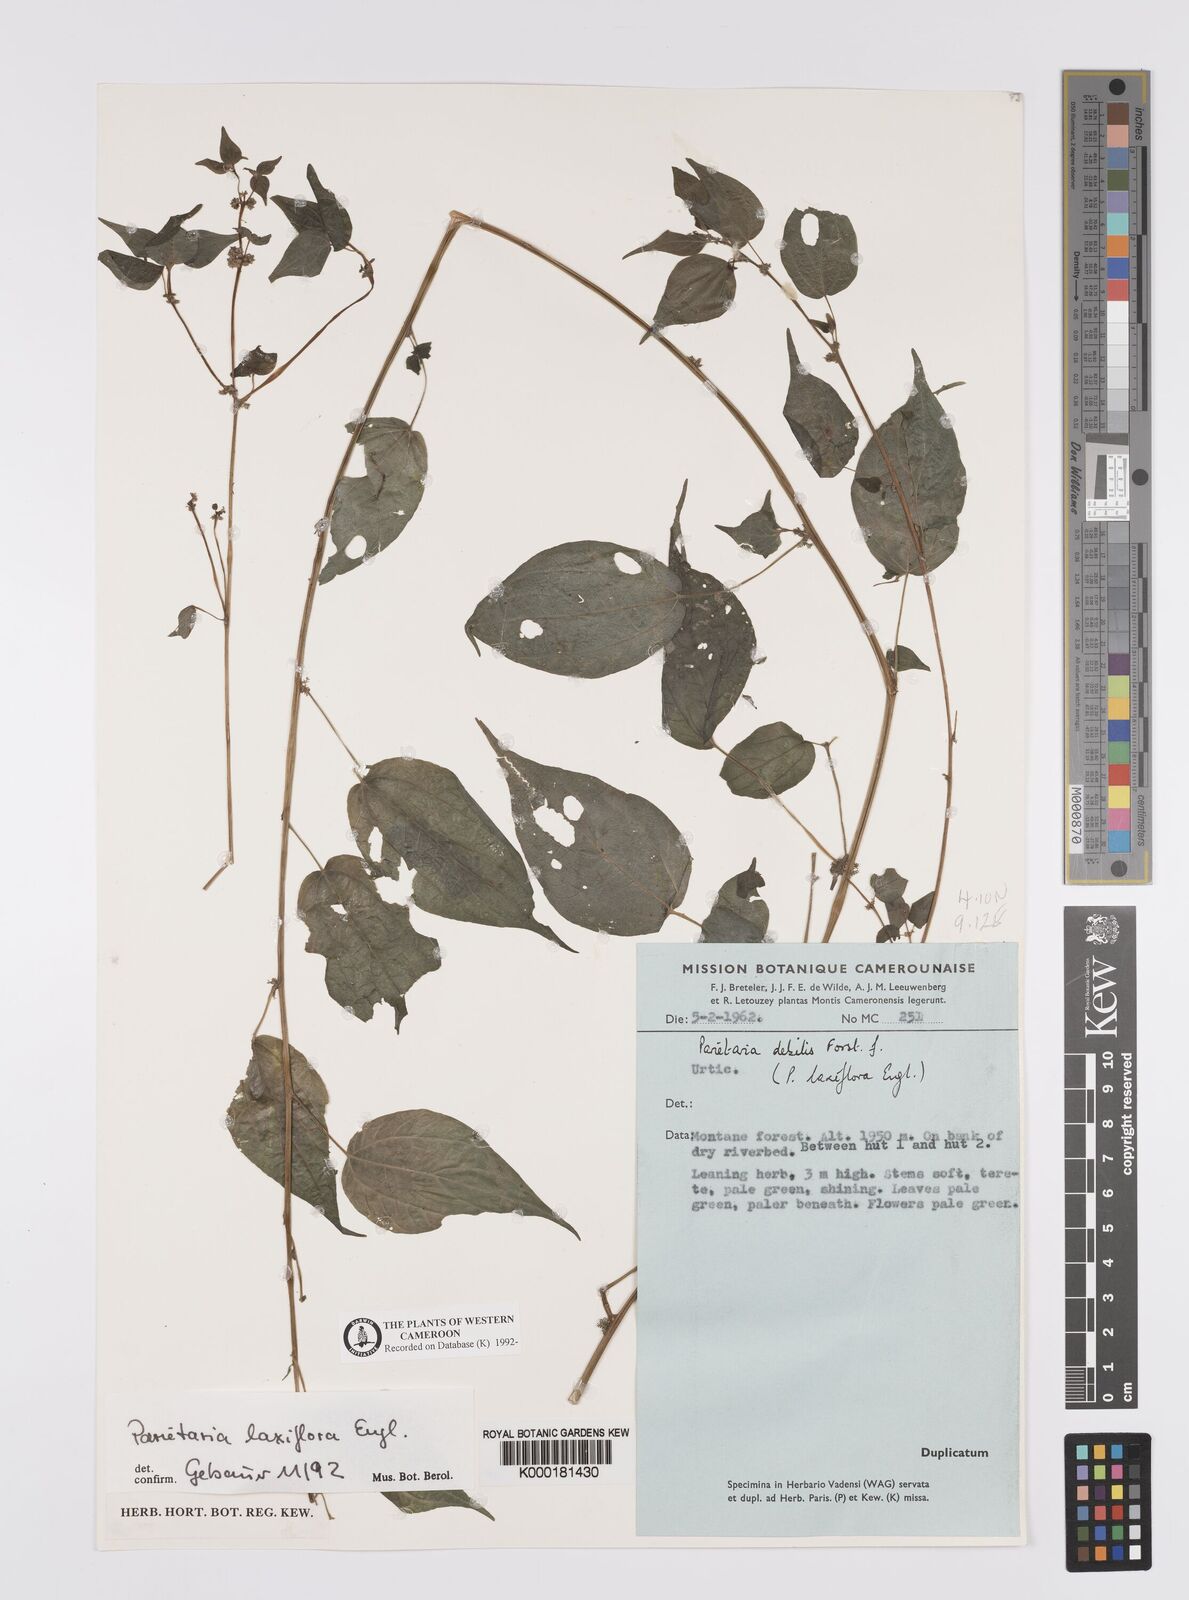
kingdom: Plantae
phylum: Tracheophyta
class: Magnoliopsida
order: Rosales
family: Urticaceae
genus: Parietaria
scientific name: Parietaria debilis
